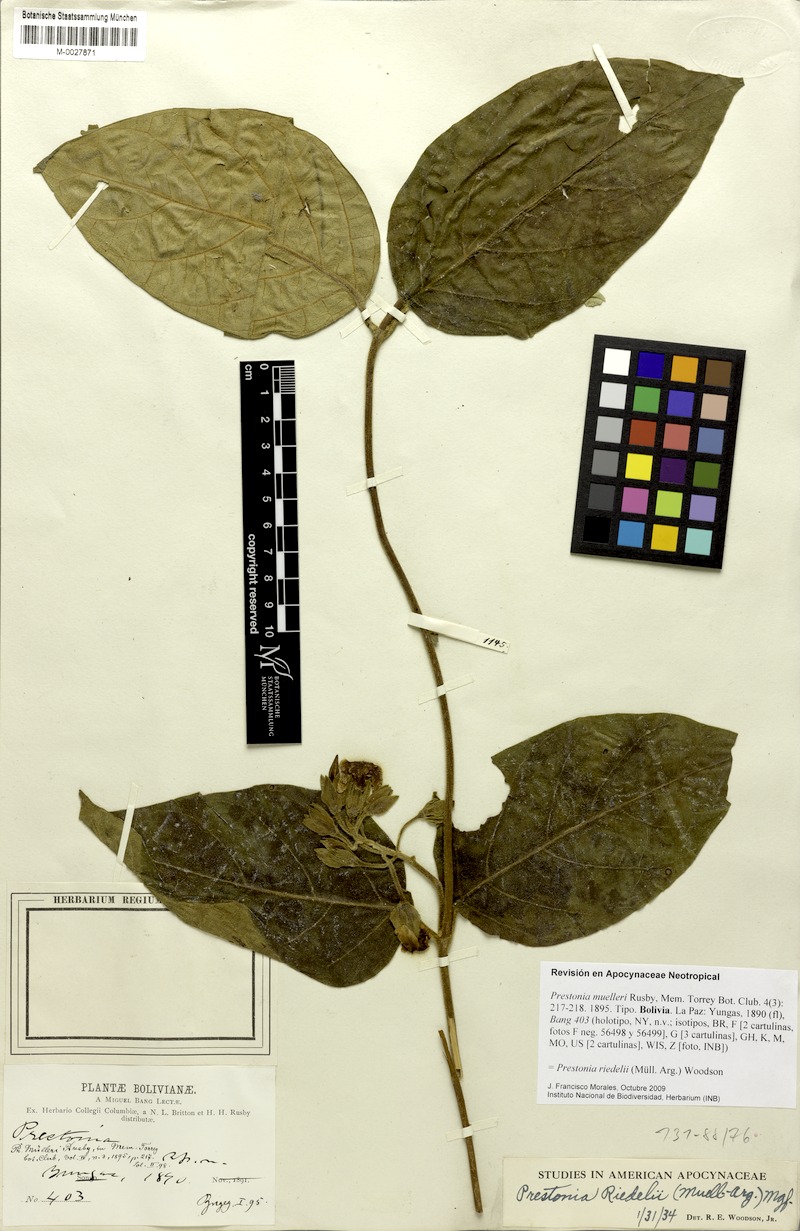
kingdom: Plantae
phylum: Tracheophyta
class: Magnoliopsida
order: Gentianales
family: Apocynaceae
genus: Rhodocalyx
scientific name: Rhodocalyx riedelii
